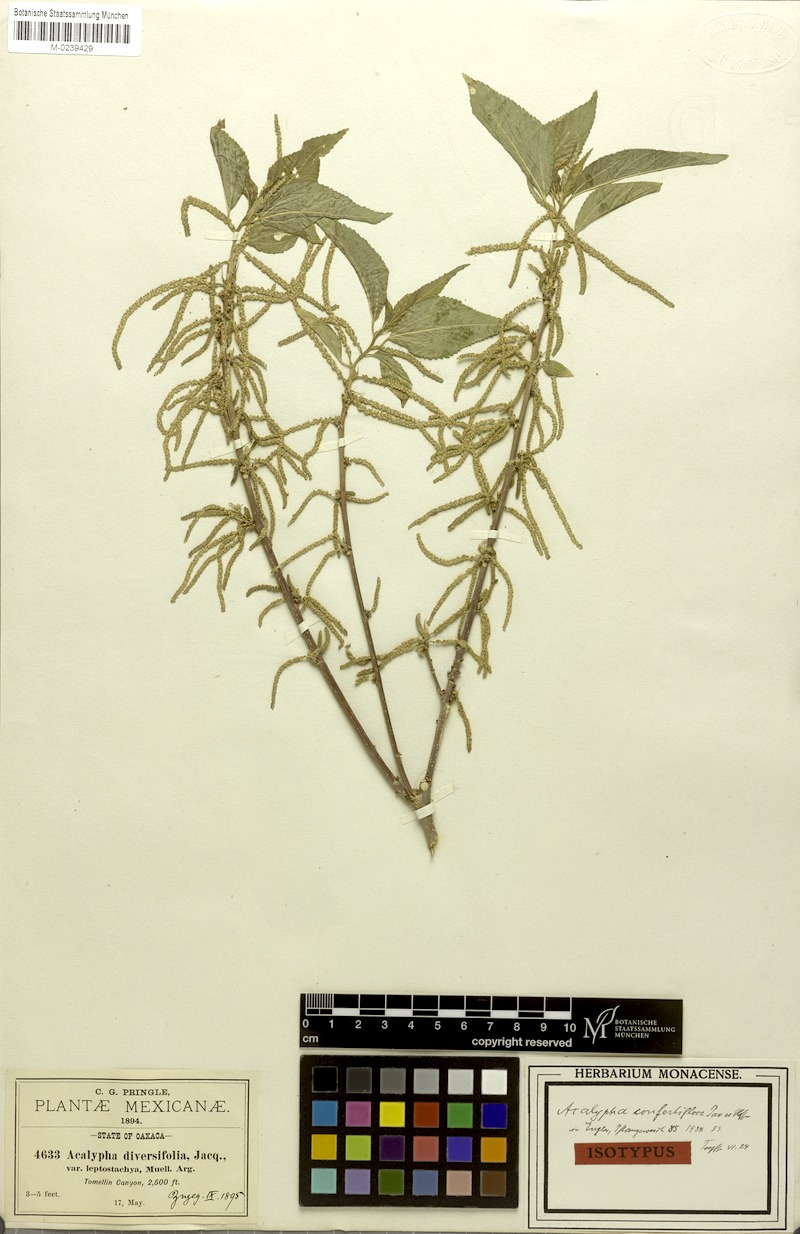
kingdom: Plantae
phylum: Tracheophyta
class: Magnoliopsida
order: Malpighiales
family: Euphorbiaceae
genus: Acalypha
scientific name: Acalypha confertiflora
